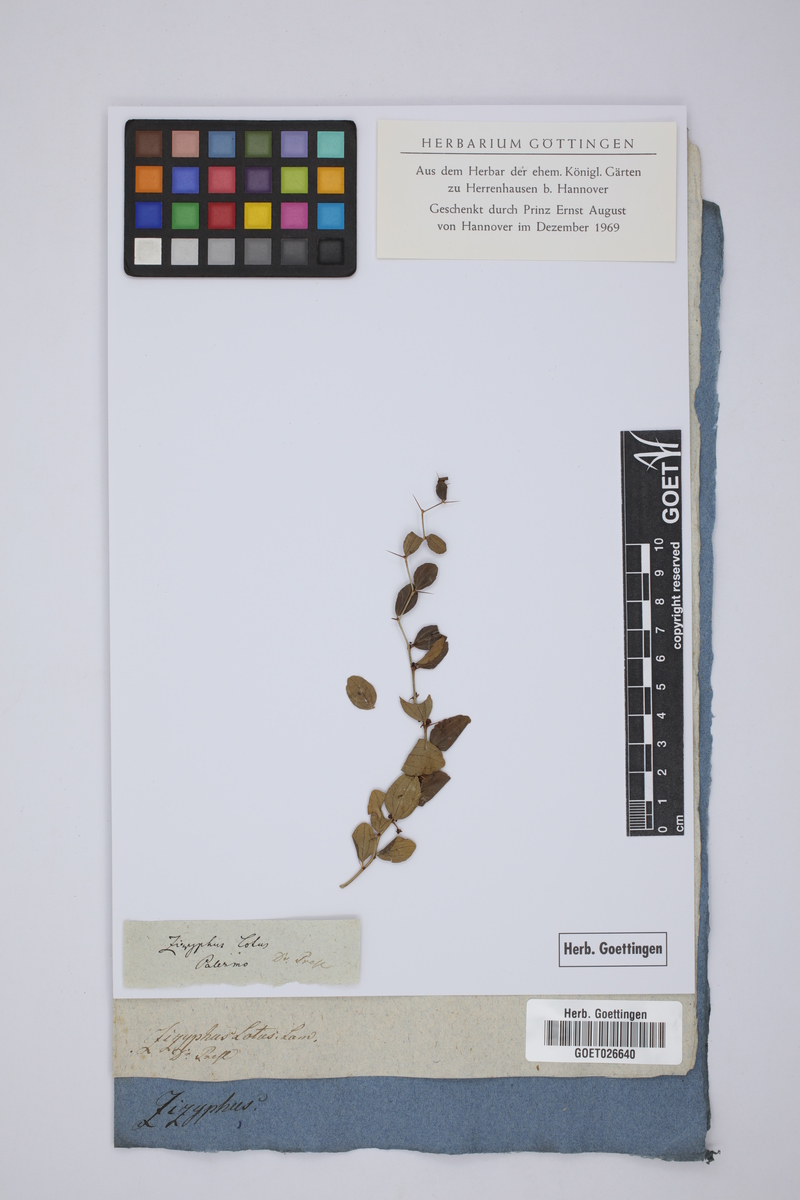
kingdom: Plantae
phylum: Tracheophyta
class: Magnoliopsida
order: Rosales
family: Rhamnaceae
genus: Ziziphus
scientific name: Ziziphus lotus
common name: Lotus
